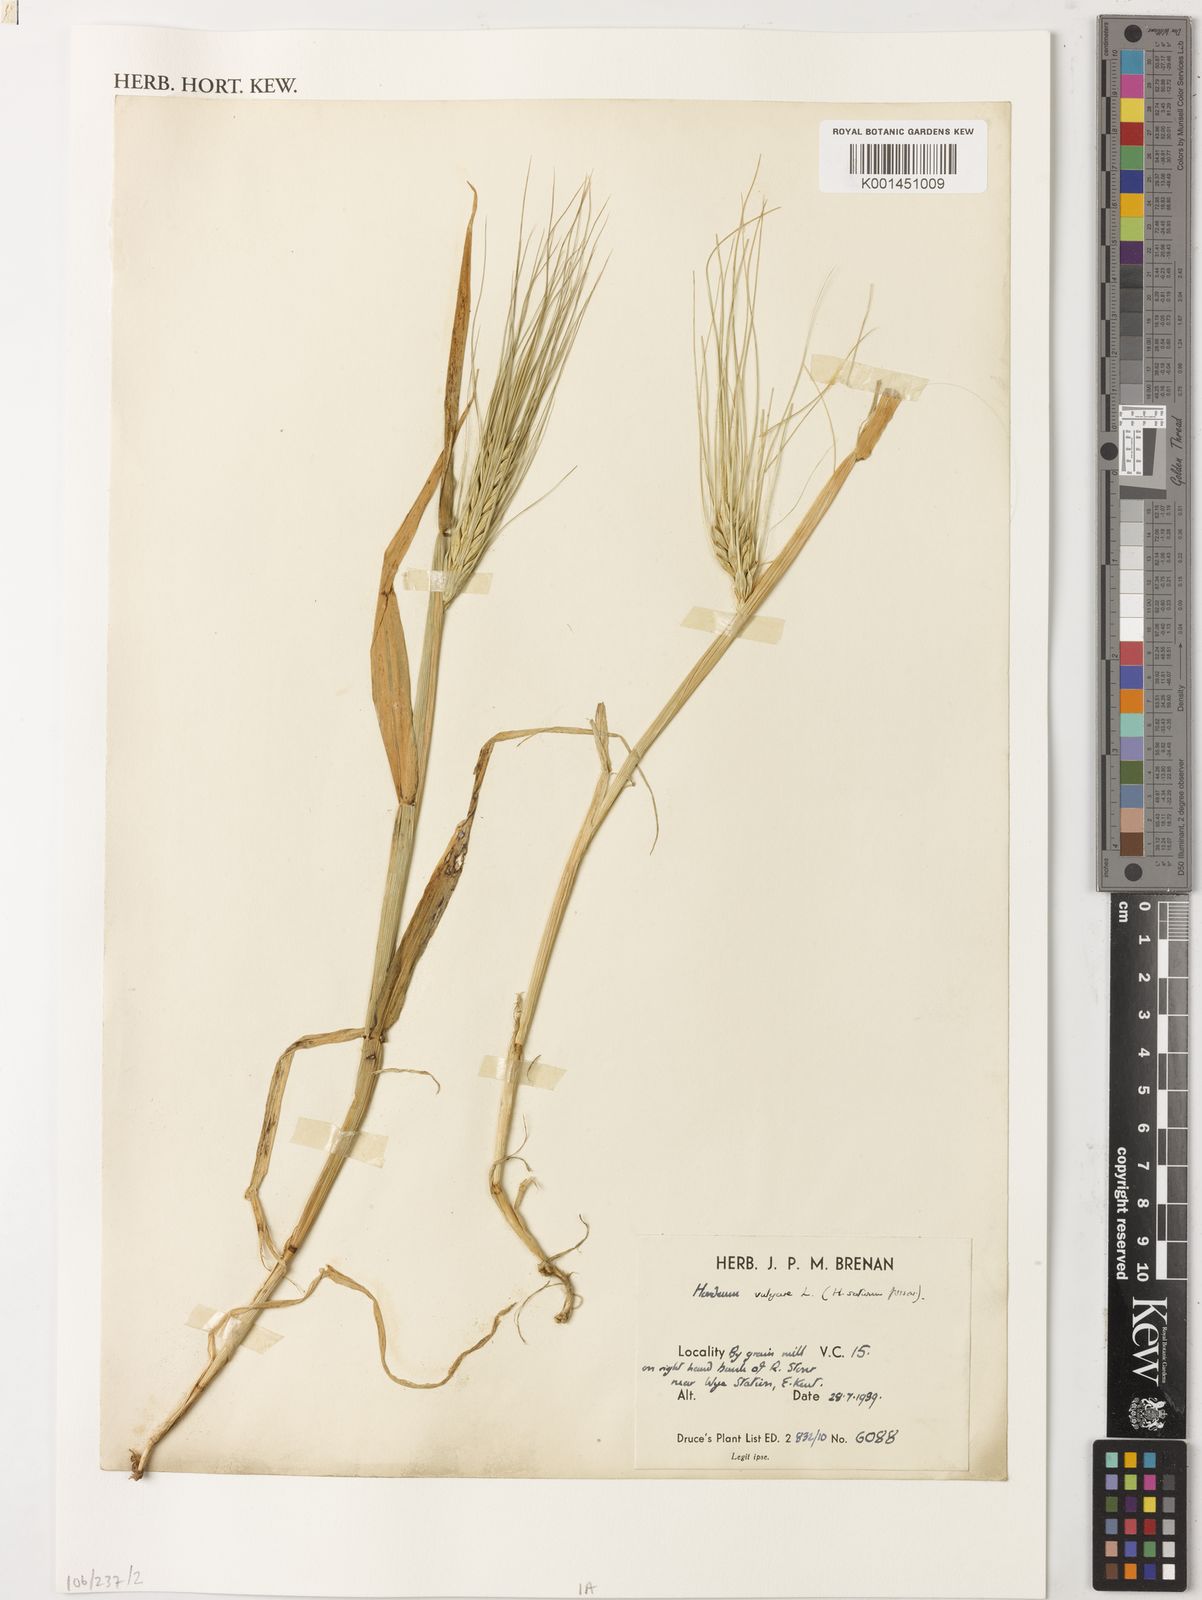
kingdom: Plantae
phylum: Tracheophyta
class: Liliopsida
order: Poales
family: Poaceae
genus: Hordeum
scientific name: Hordeum vulgare
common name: Common barley
